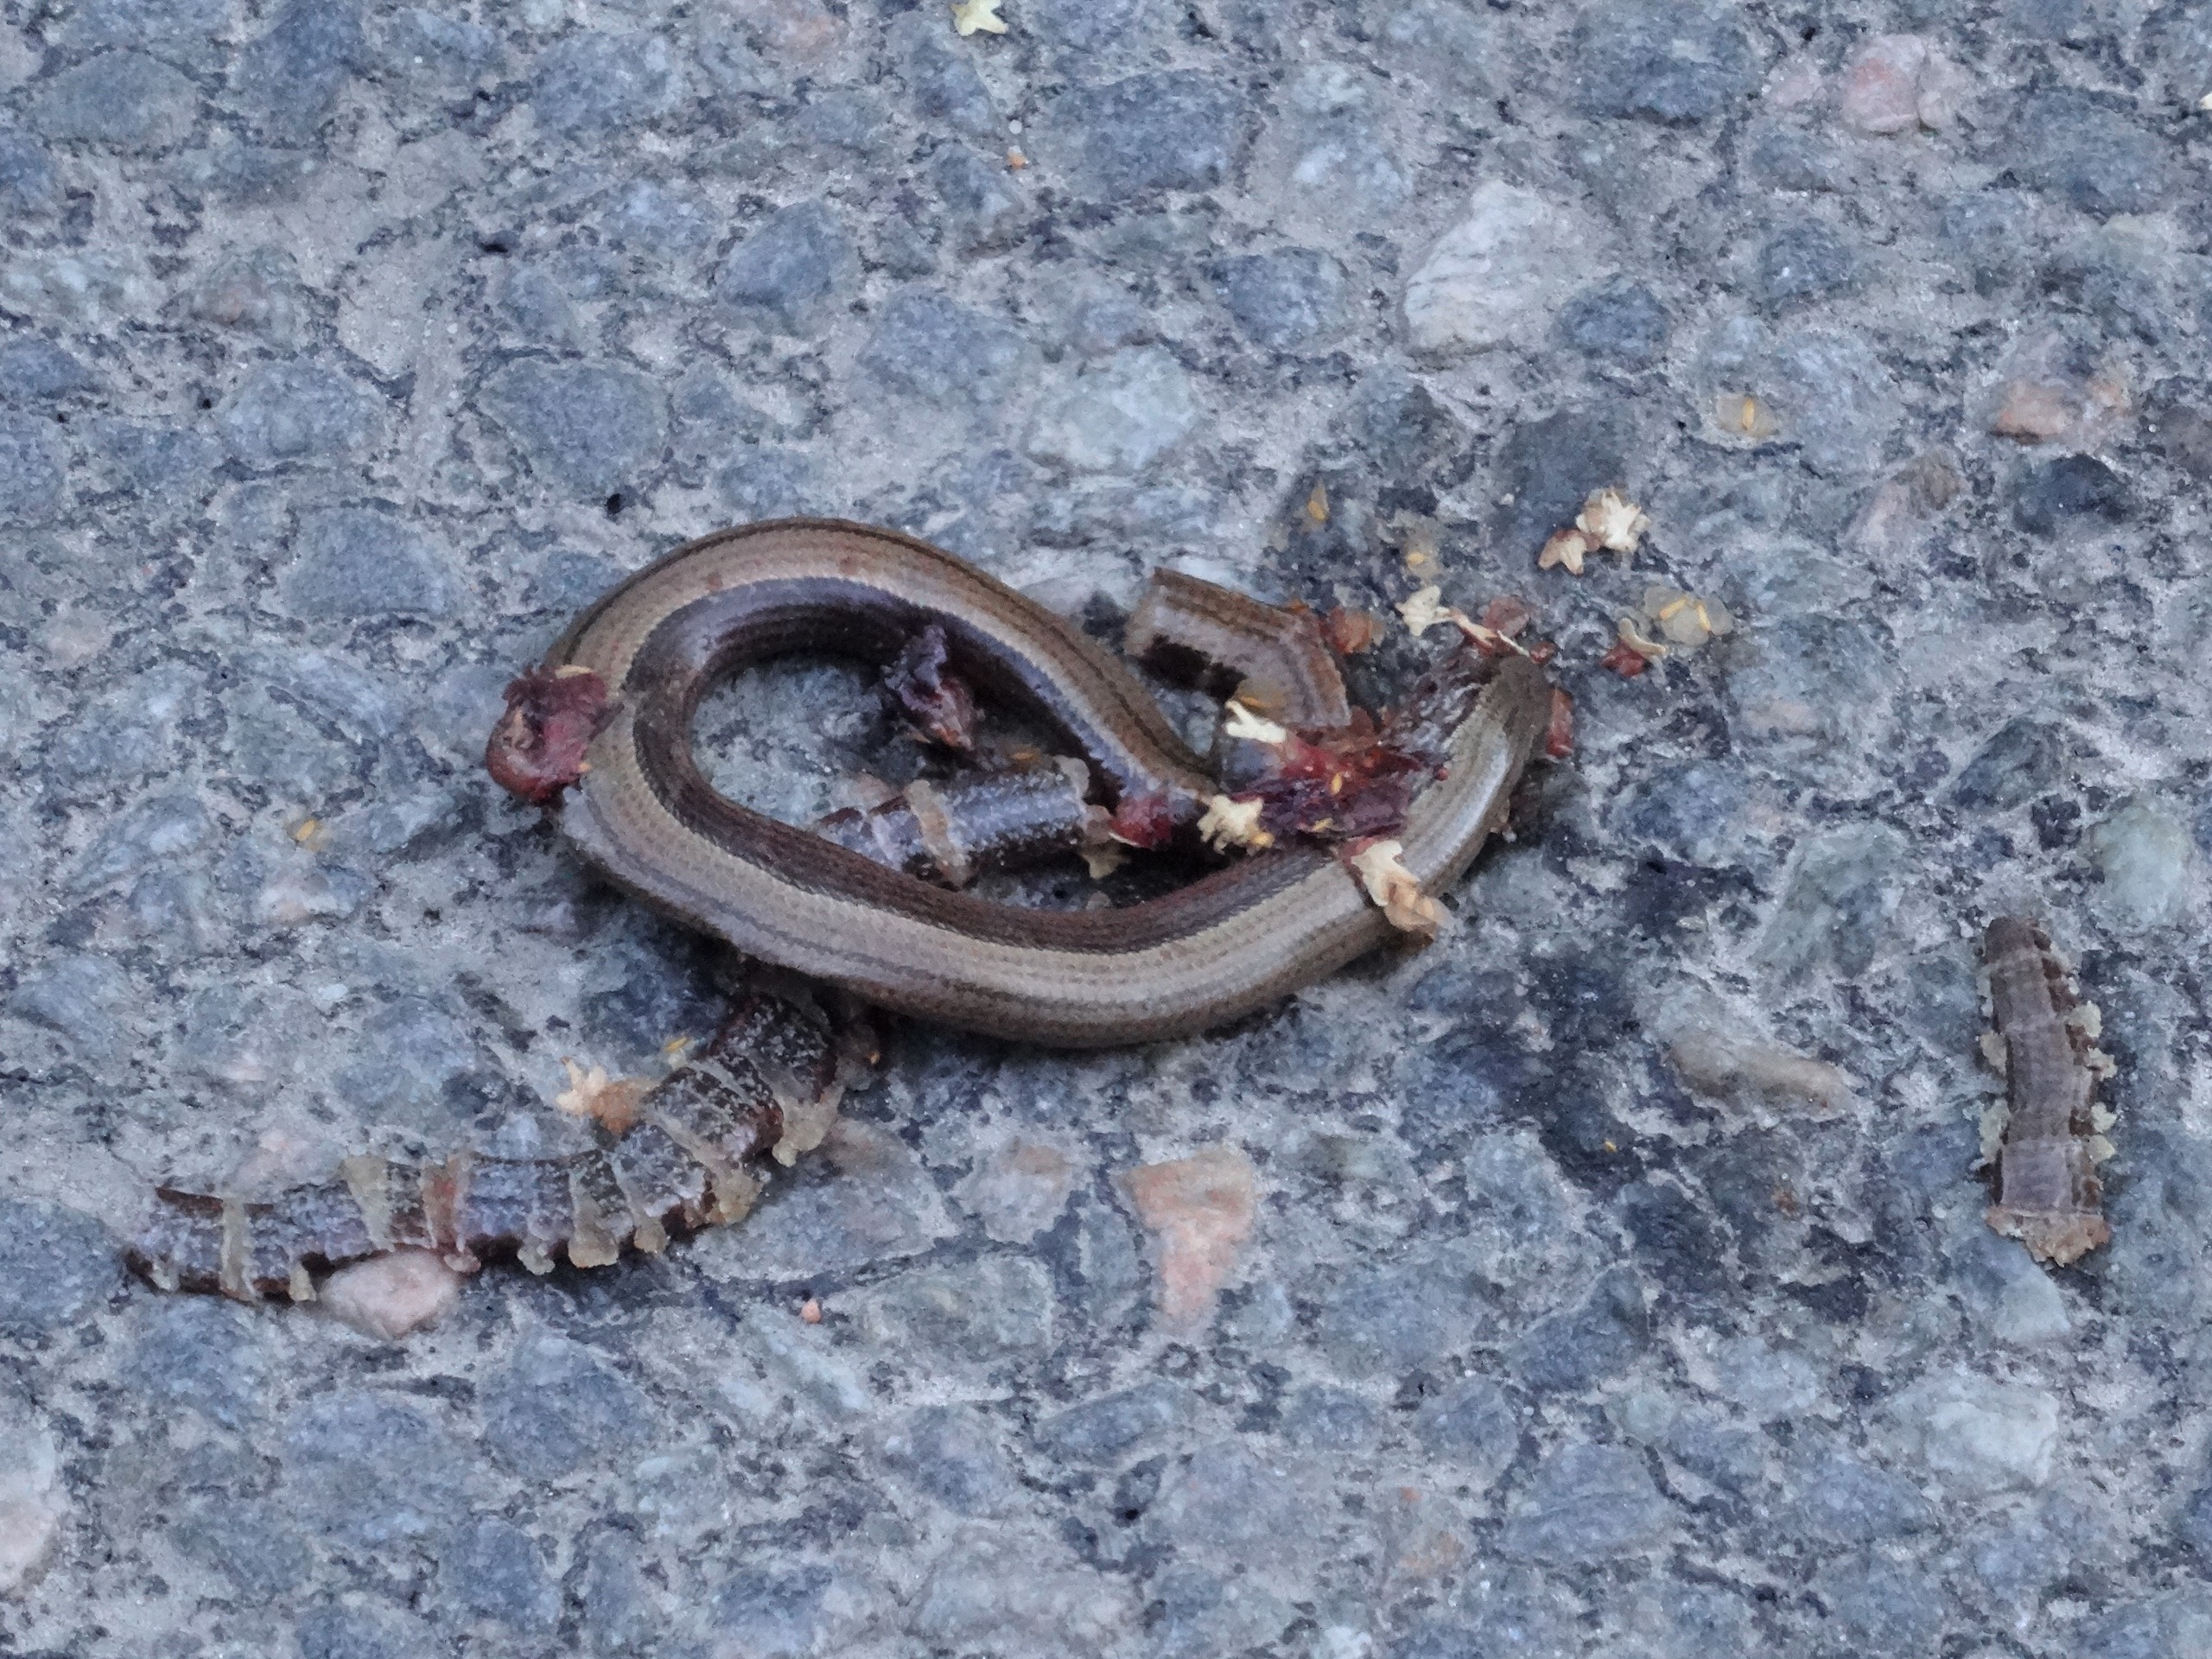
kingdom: Animalia
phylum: Chordata
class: Squamata
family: Anguidae
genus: Anguis
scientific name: Anguis fragilis
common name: Stålorm
